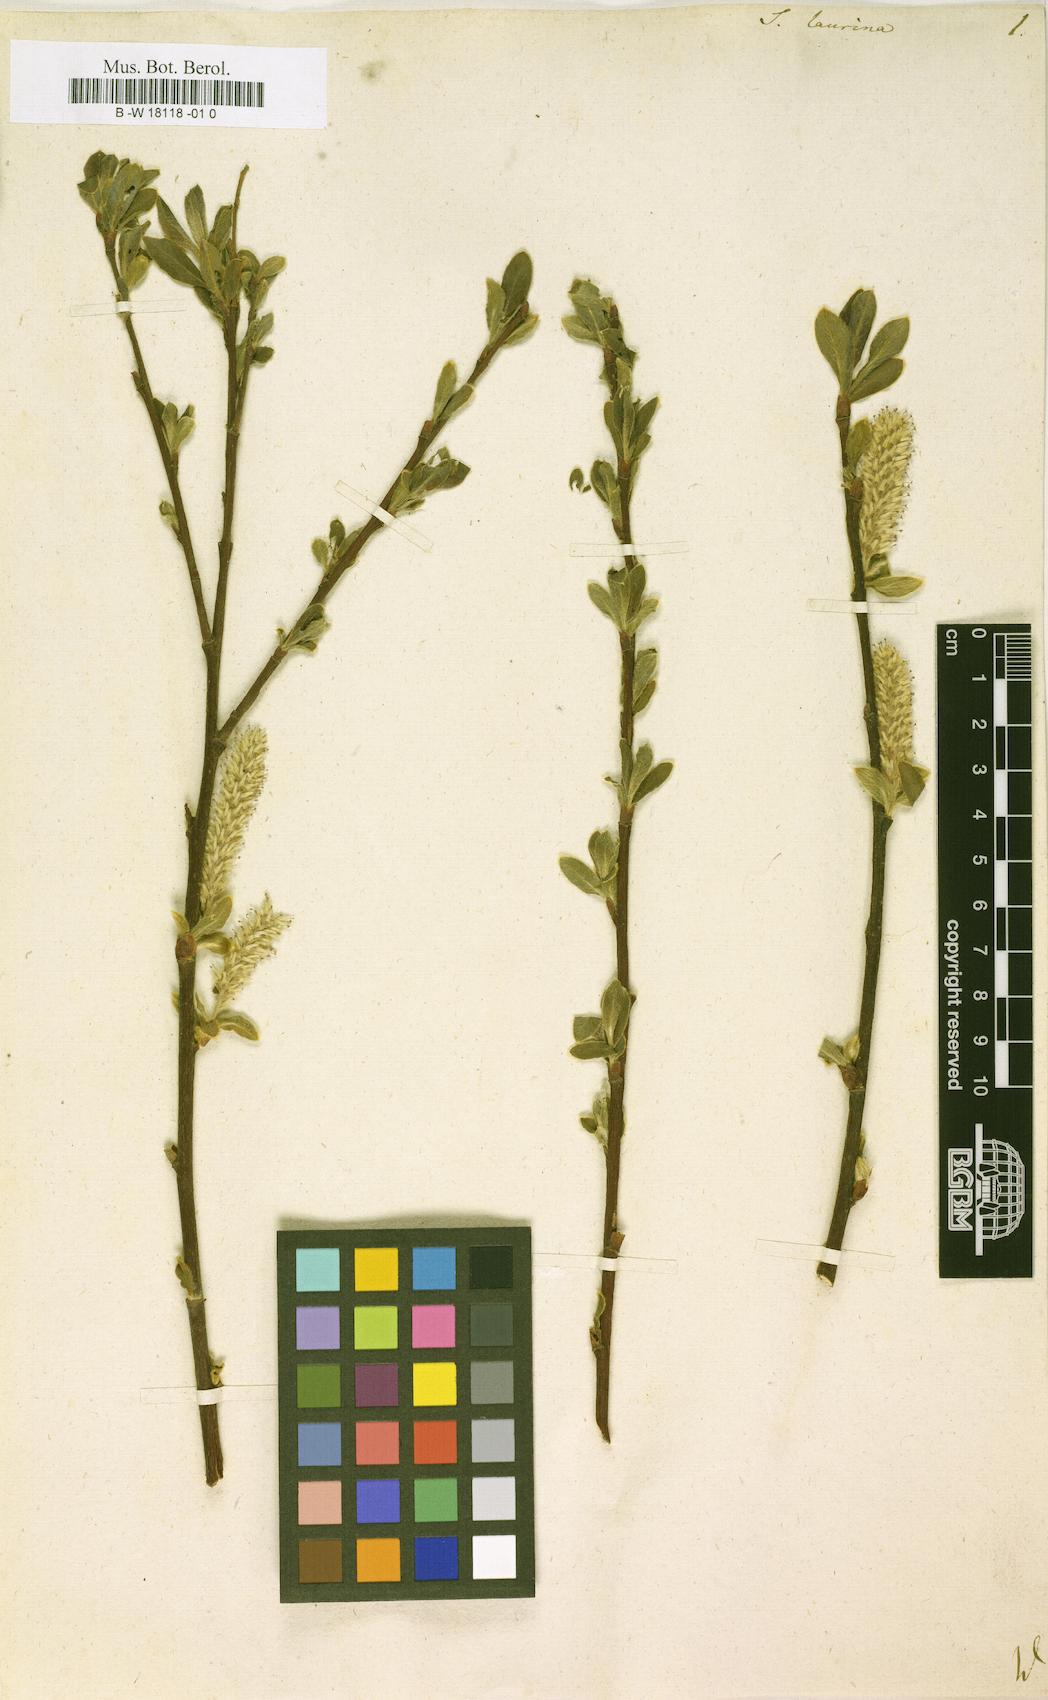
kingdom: Plantae
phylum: Tracheophyta
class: Magnoliopsida
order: Malpighiales
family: Salicaceae
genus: Salix
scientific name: Salix laurina
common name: Laurel-leaf willow
